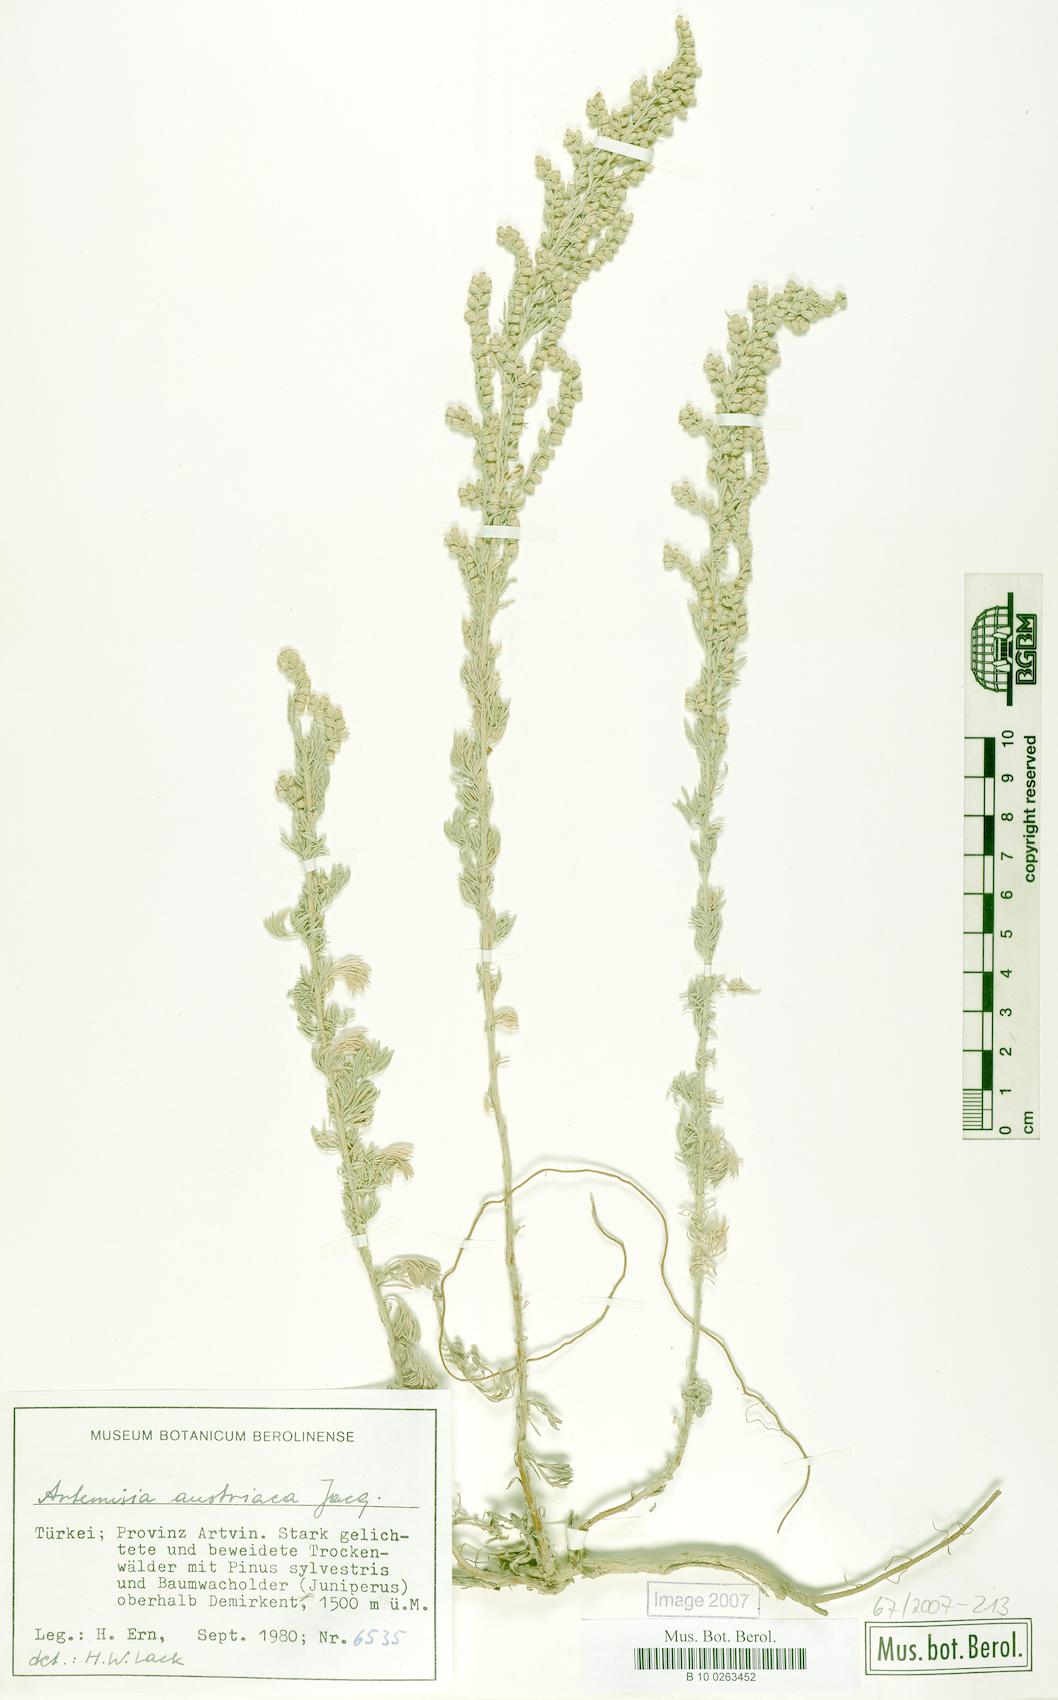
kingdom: Plantae
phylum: Tracheophyta
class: Magnoliopsida
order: Asterales
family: Asteraceae
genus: Artemisia
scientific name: Artemisia austriaca
